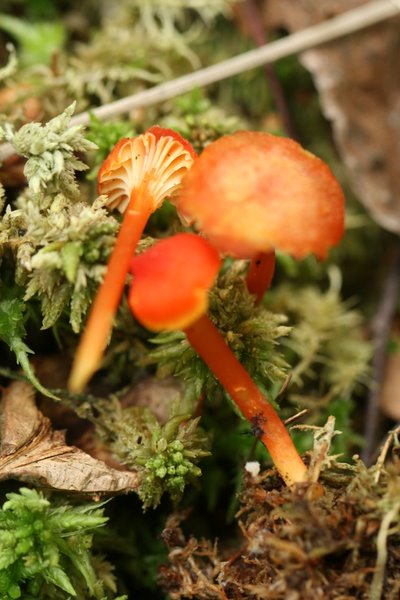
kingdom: Fungi
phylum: Basidiomycota
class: Agaricomycetes
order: Agaricales
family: Hygrophoraceae
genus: Hygrocybe
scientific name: Hygrocybe cantharellus
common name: kantarel-vokshat
